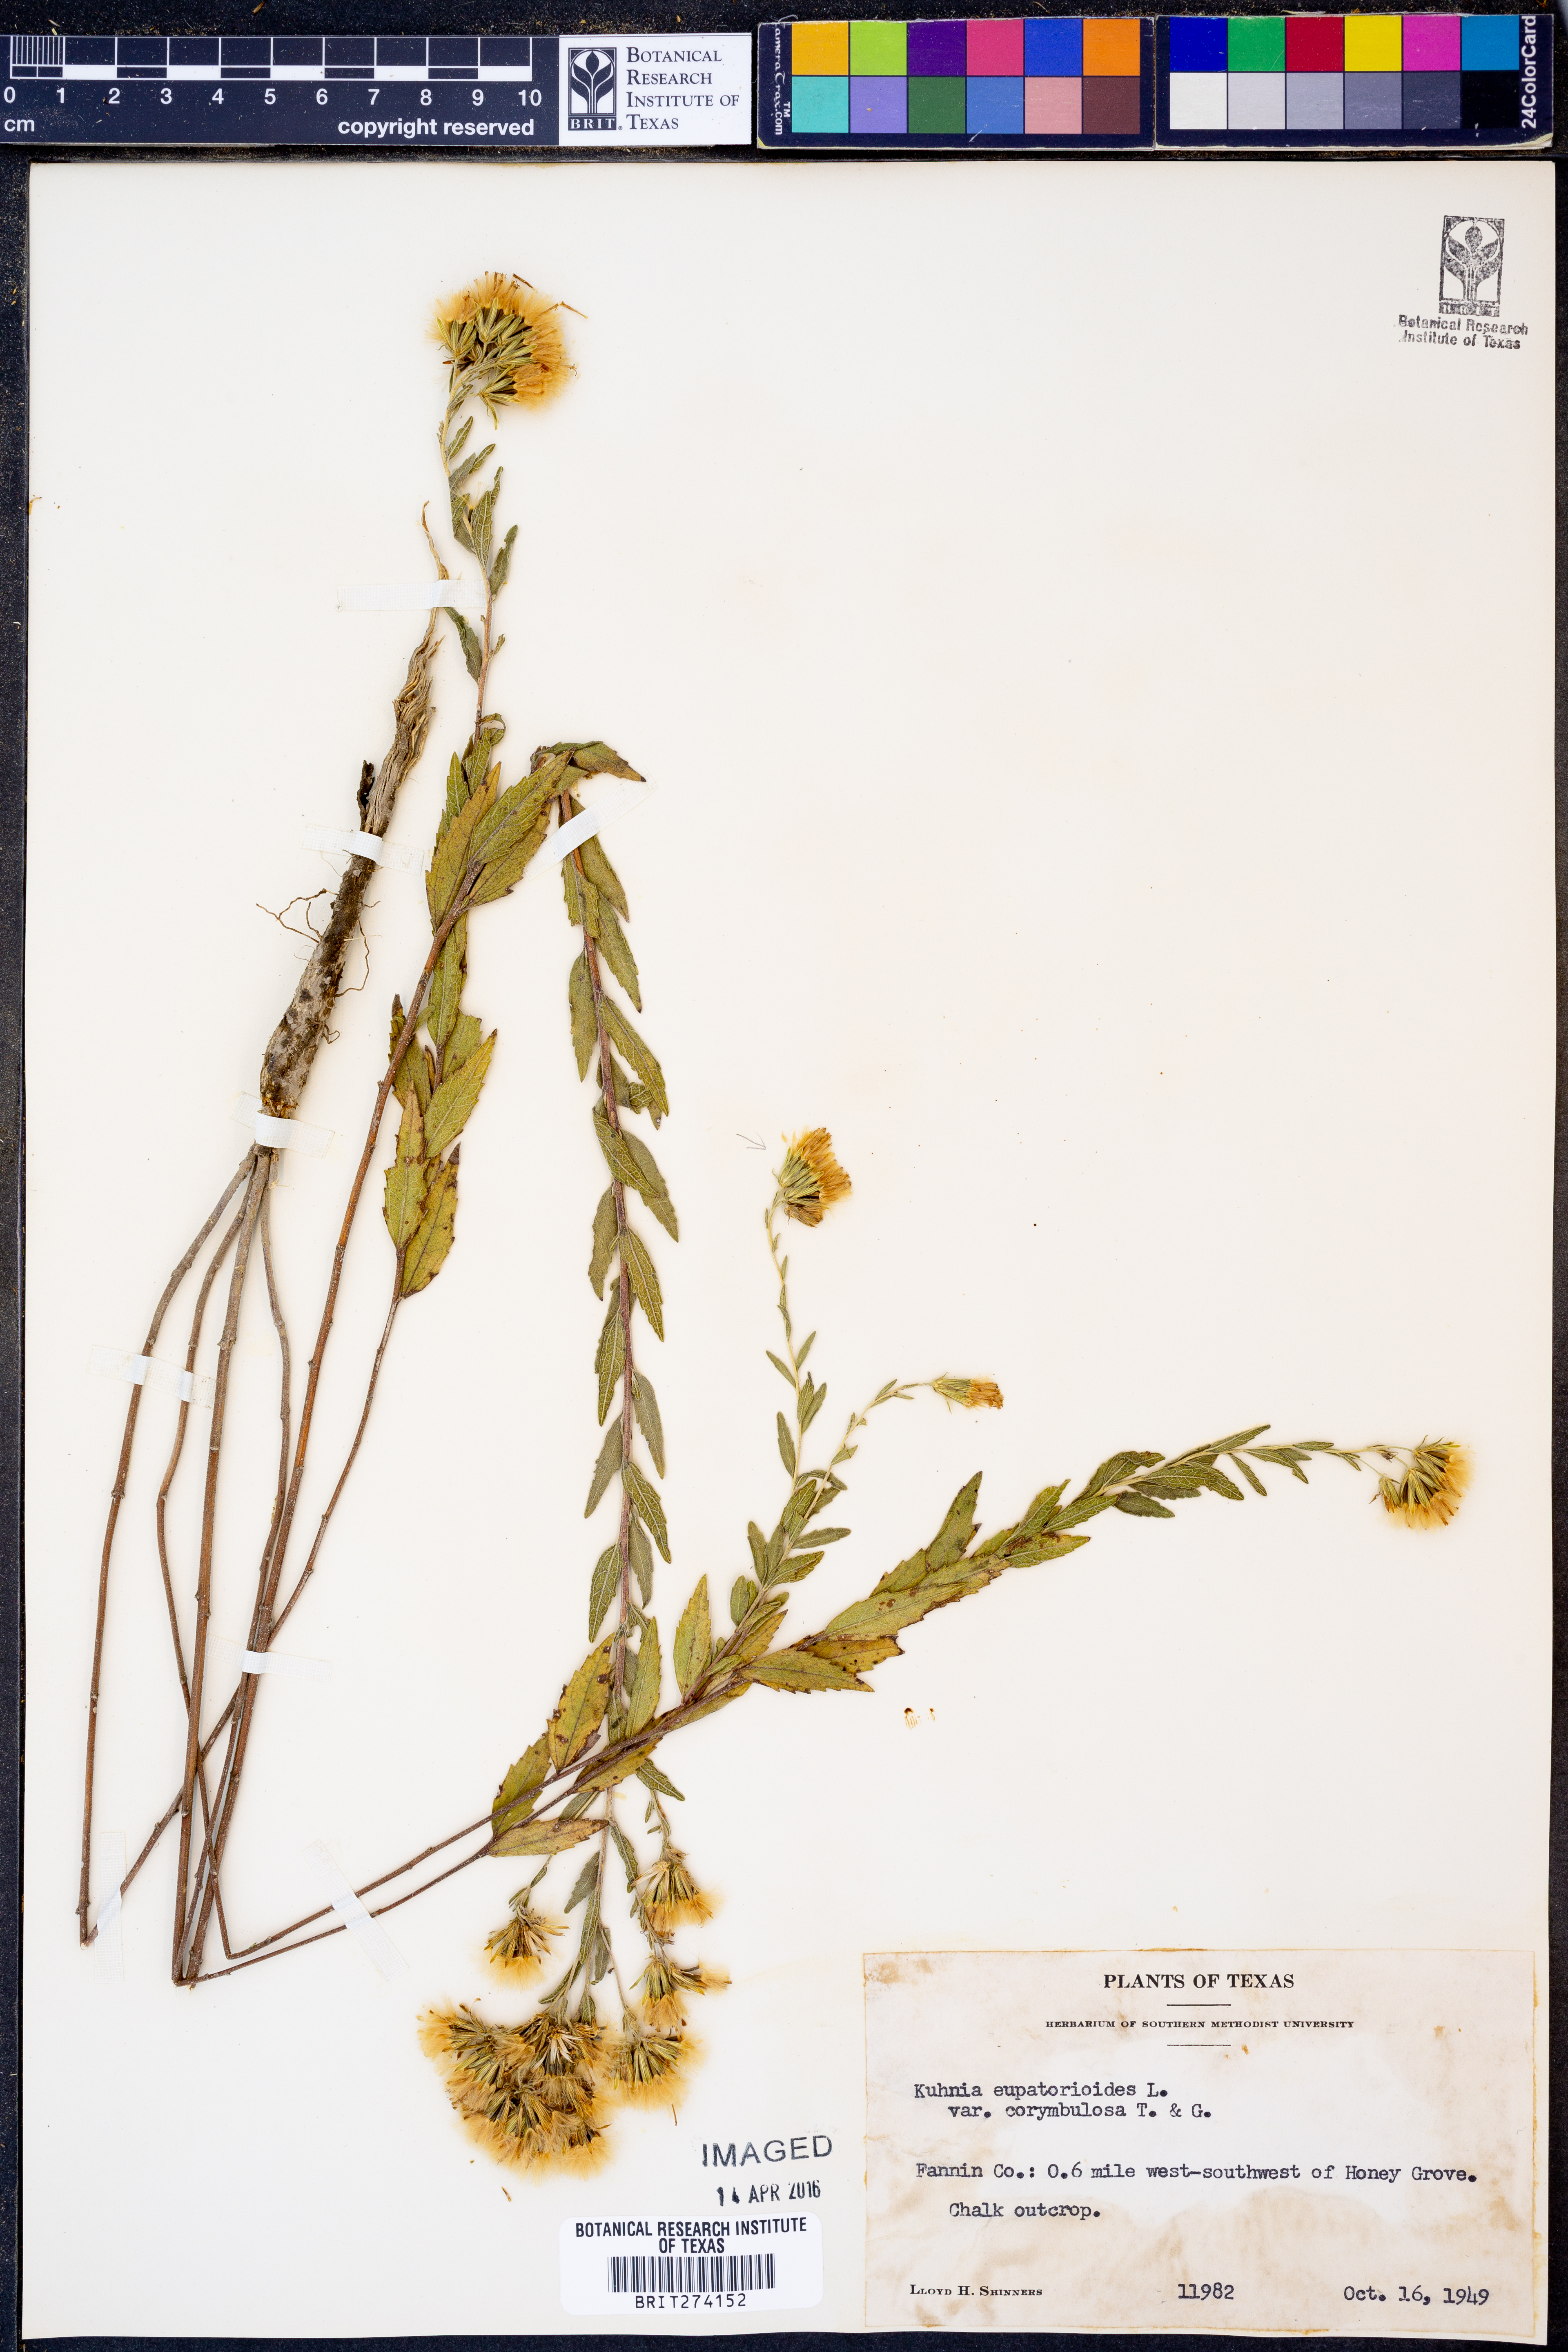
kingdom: Plantae
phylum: Tracheophyta
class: Magnoliopsida
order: Asterales
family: Asteraceae
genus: Brickellia
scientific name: Brickellia suaveolens
